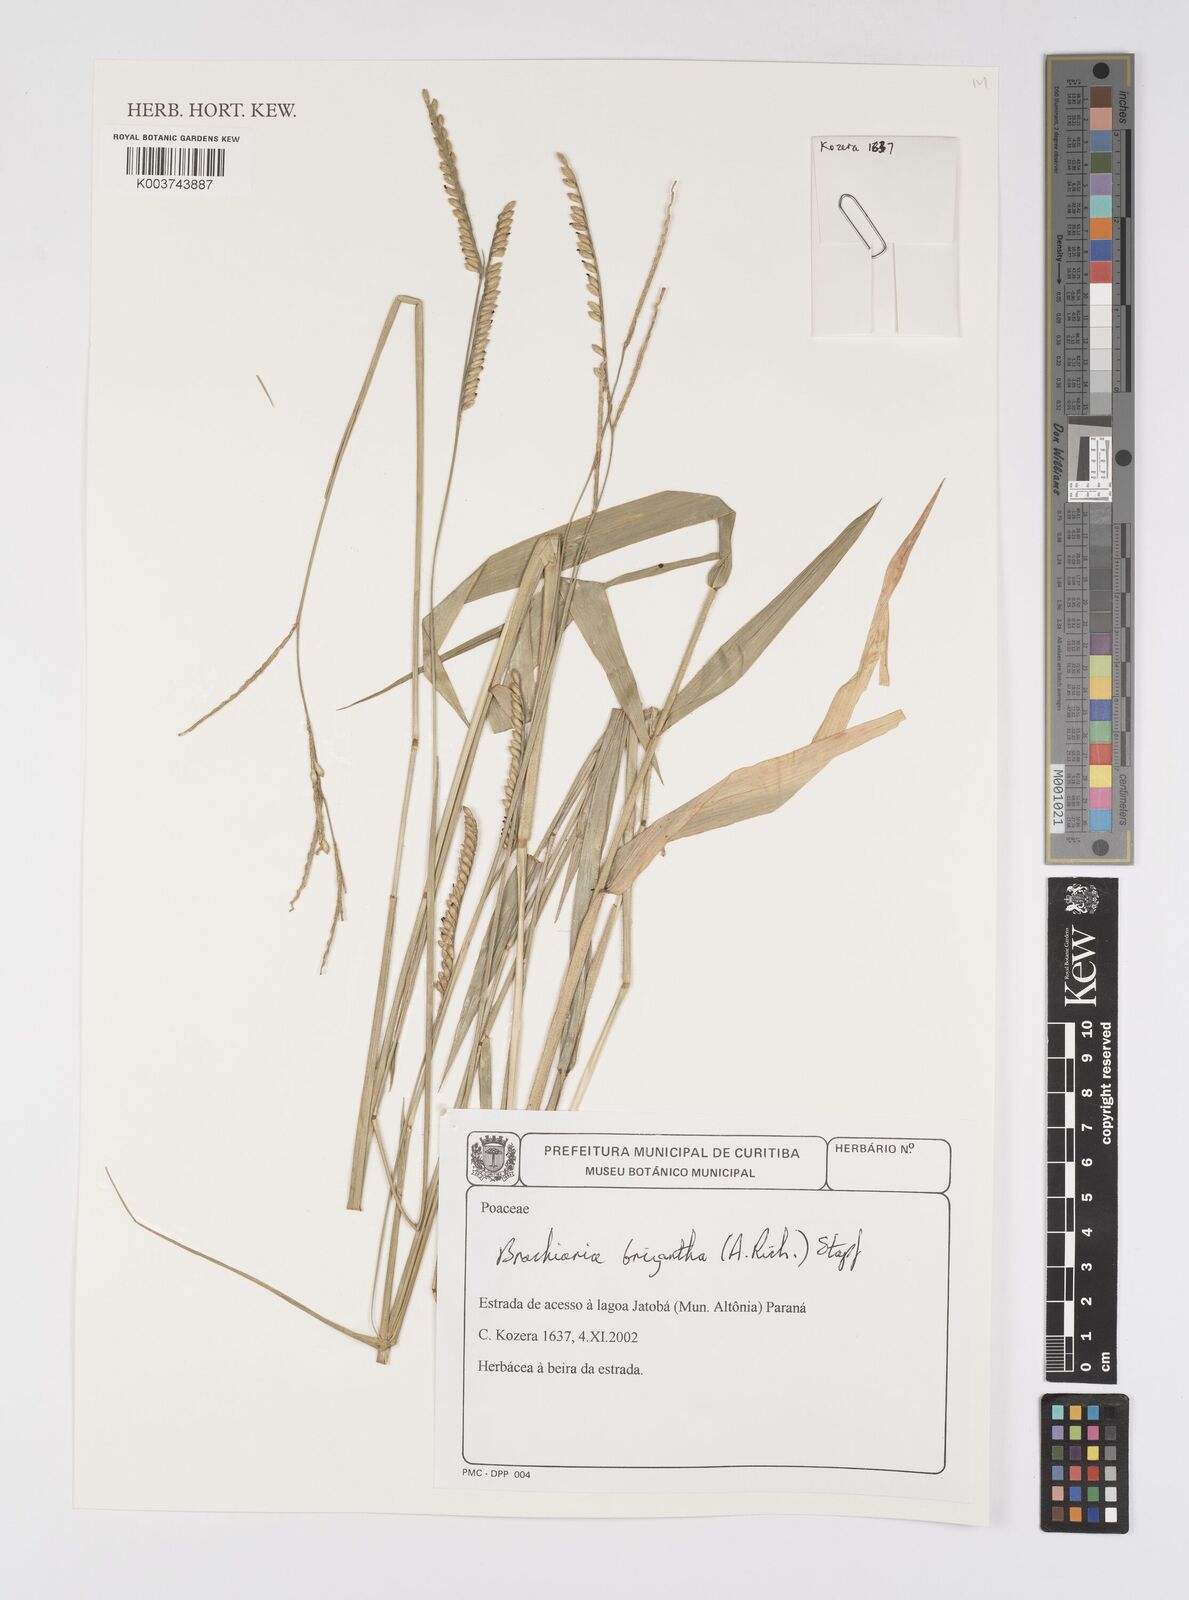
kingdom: Plantae
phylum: Tracheophyta
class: Liliopsida
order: Poales
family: Poaceae
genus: Urochloa
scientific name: Urochloa brizantha
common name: Palisade signalgrass
